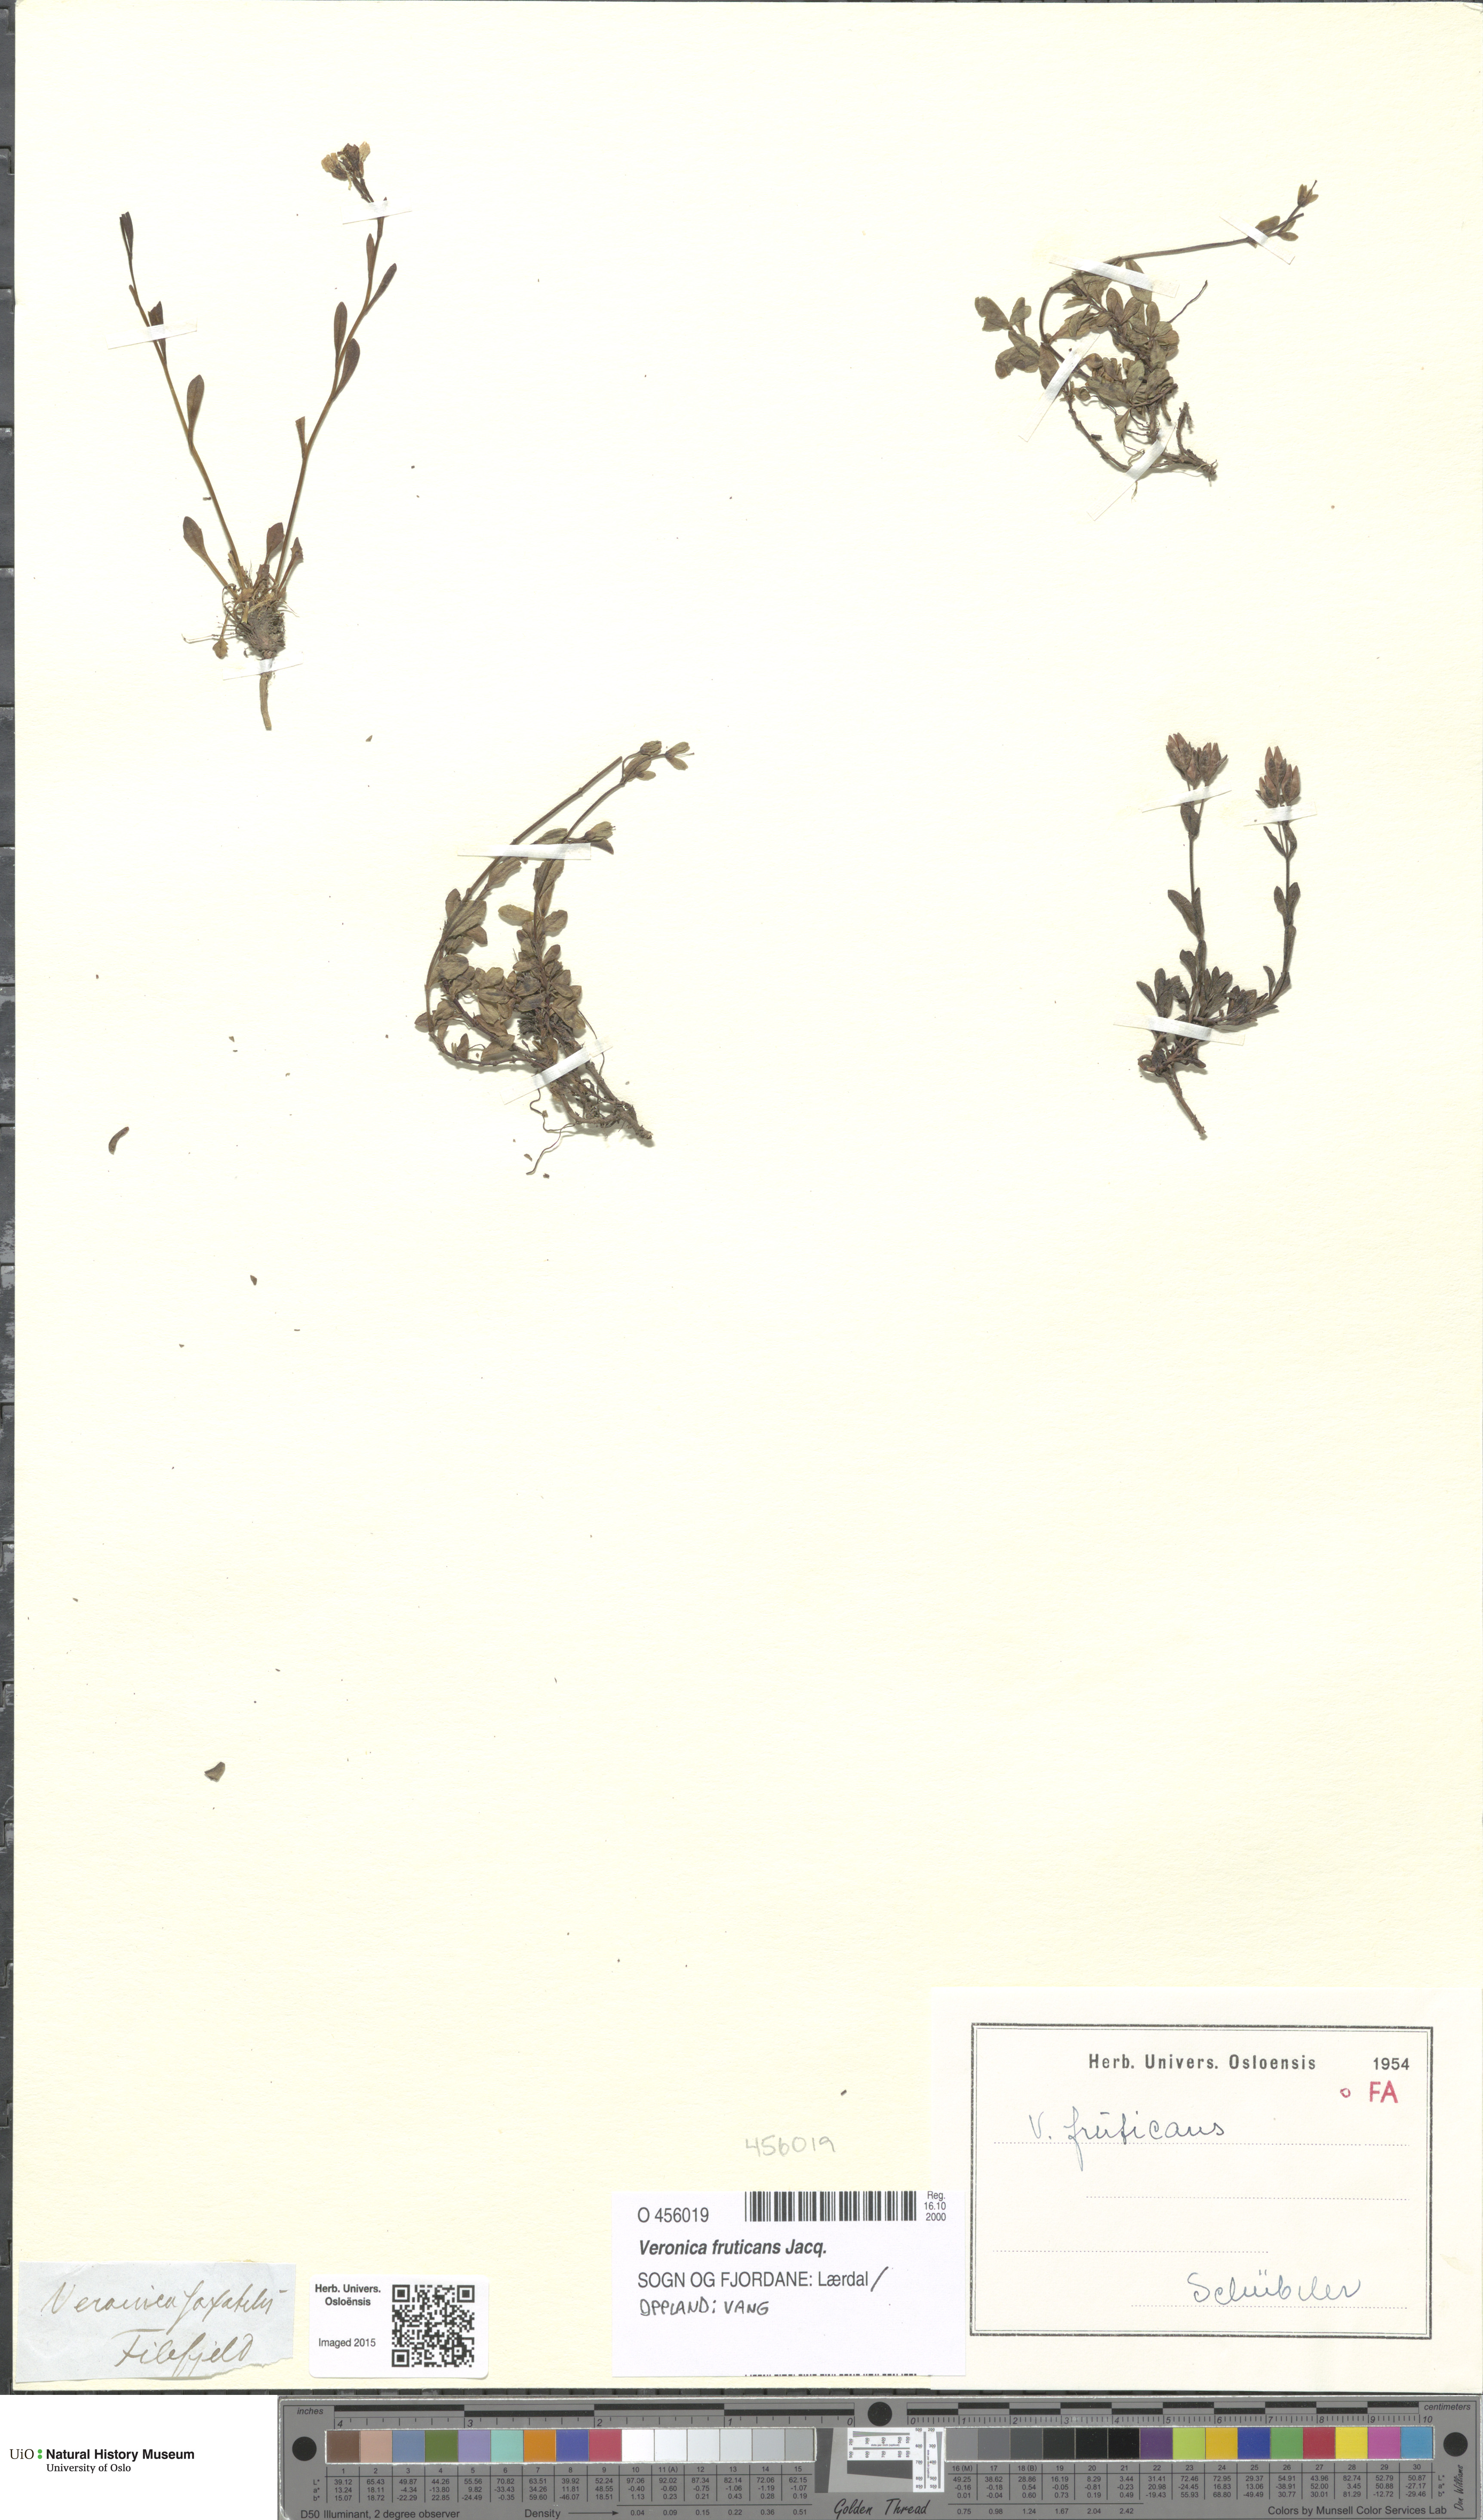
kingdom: Plantae
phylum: Tracheophyta
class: Magnoliopsida
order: Lamiales
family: Plantaginaceae
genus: Veronica
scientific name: Veronica fruticans
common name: Rock speedwell
